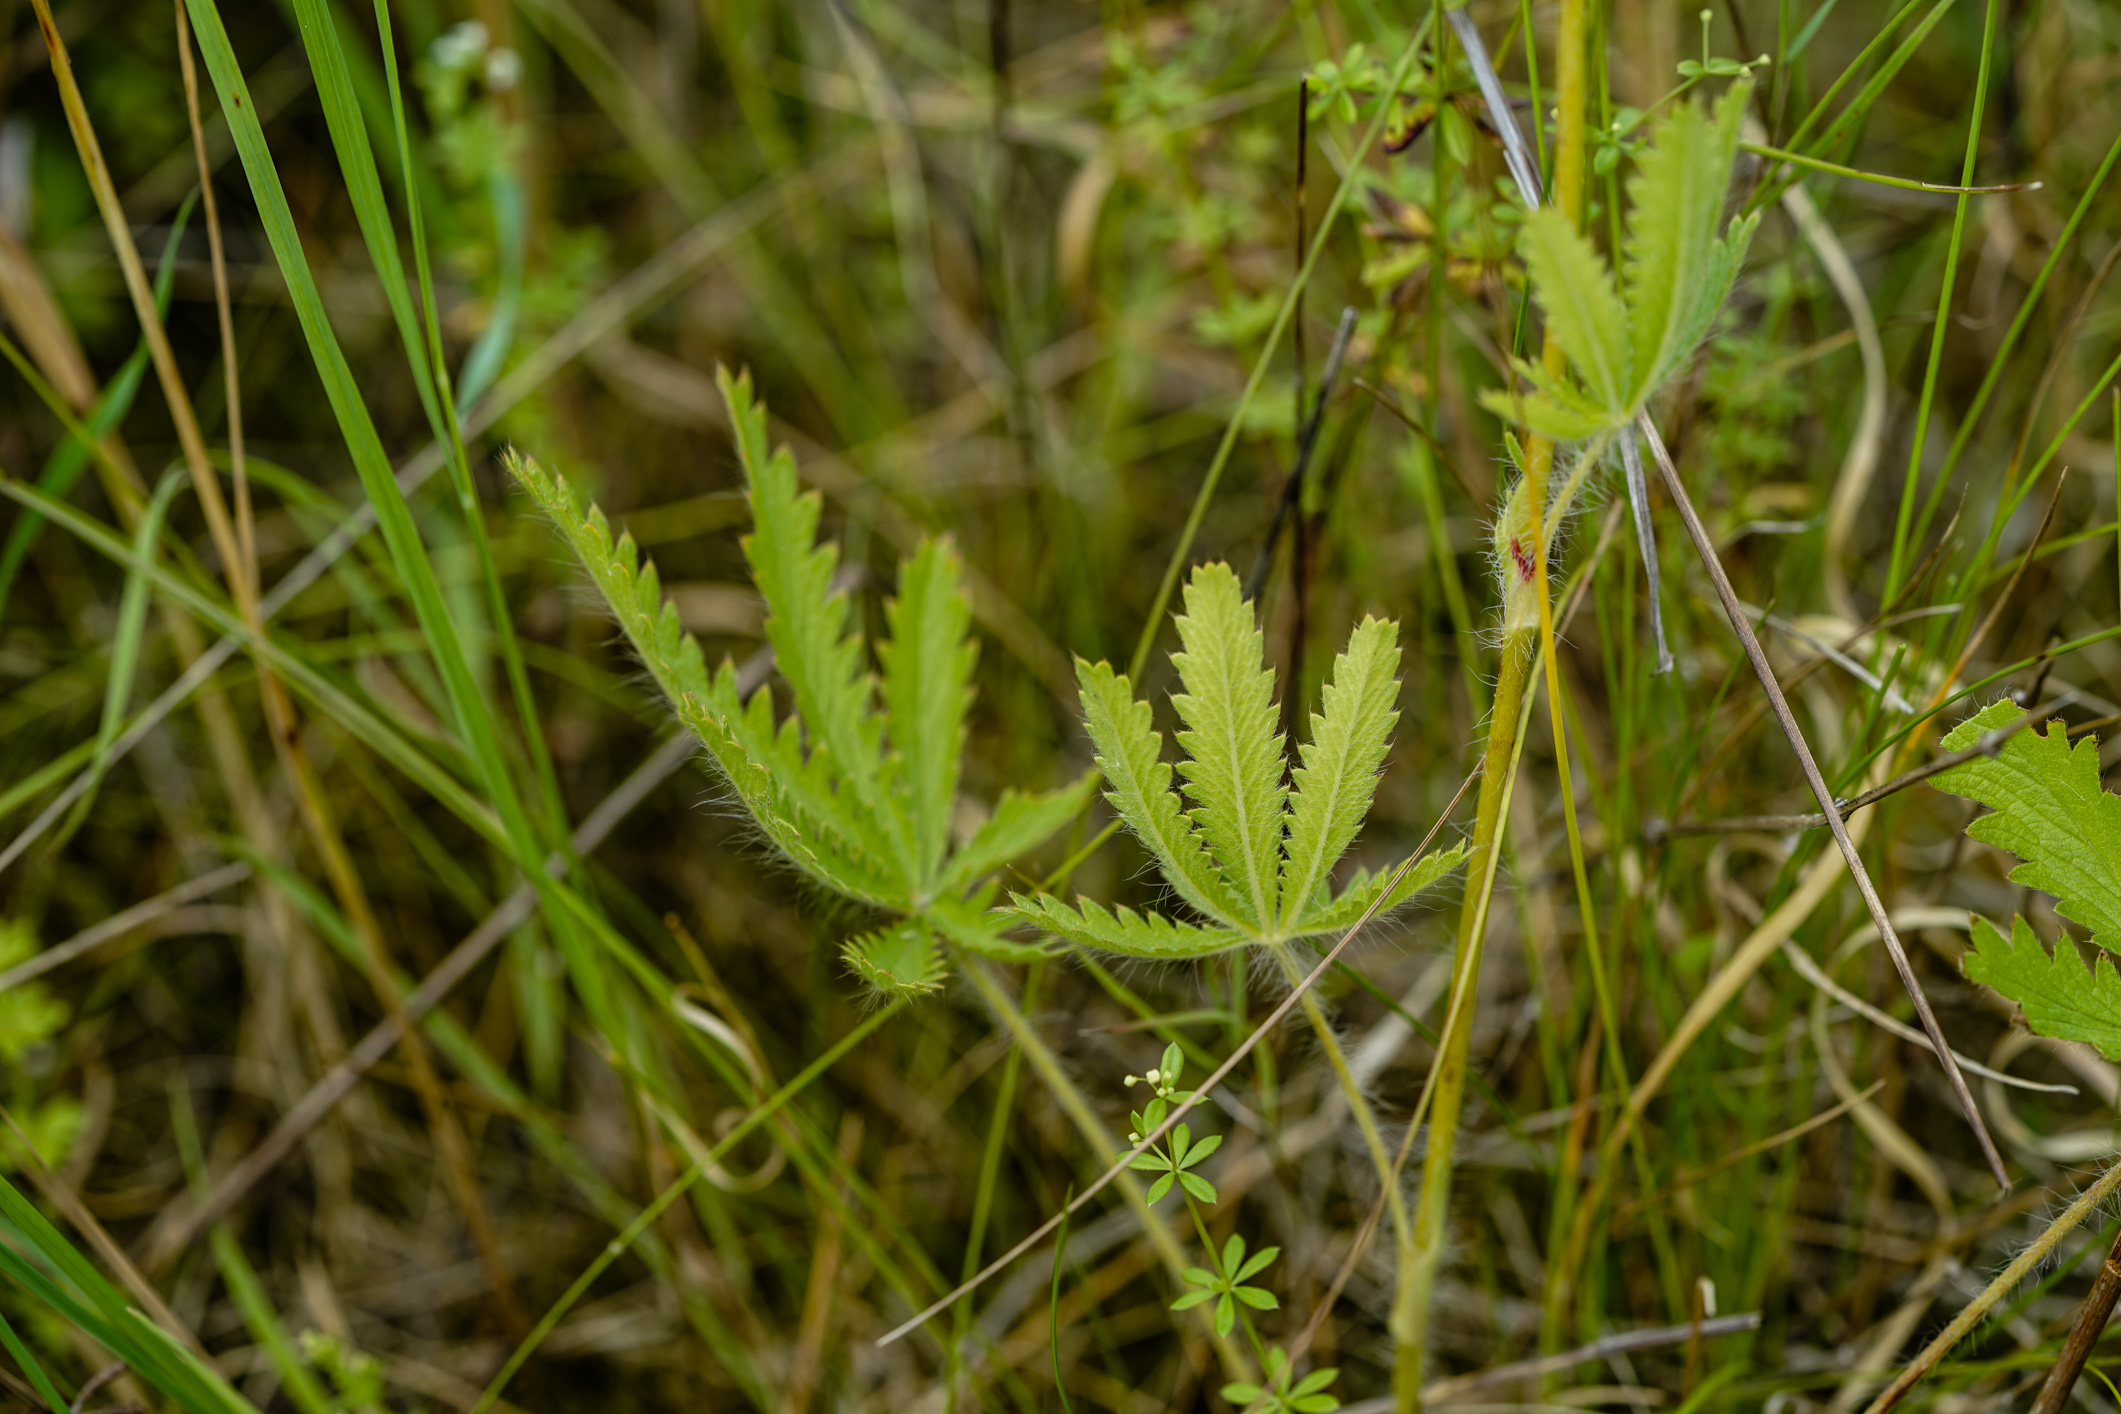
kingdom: Plantae
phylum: Tracheophyta
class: Magnoliopsida
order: Rosales
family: Rosaceae
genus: Potentilla
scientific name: Potentilla recta
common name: Sulphur cinquefoil
